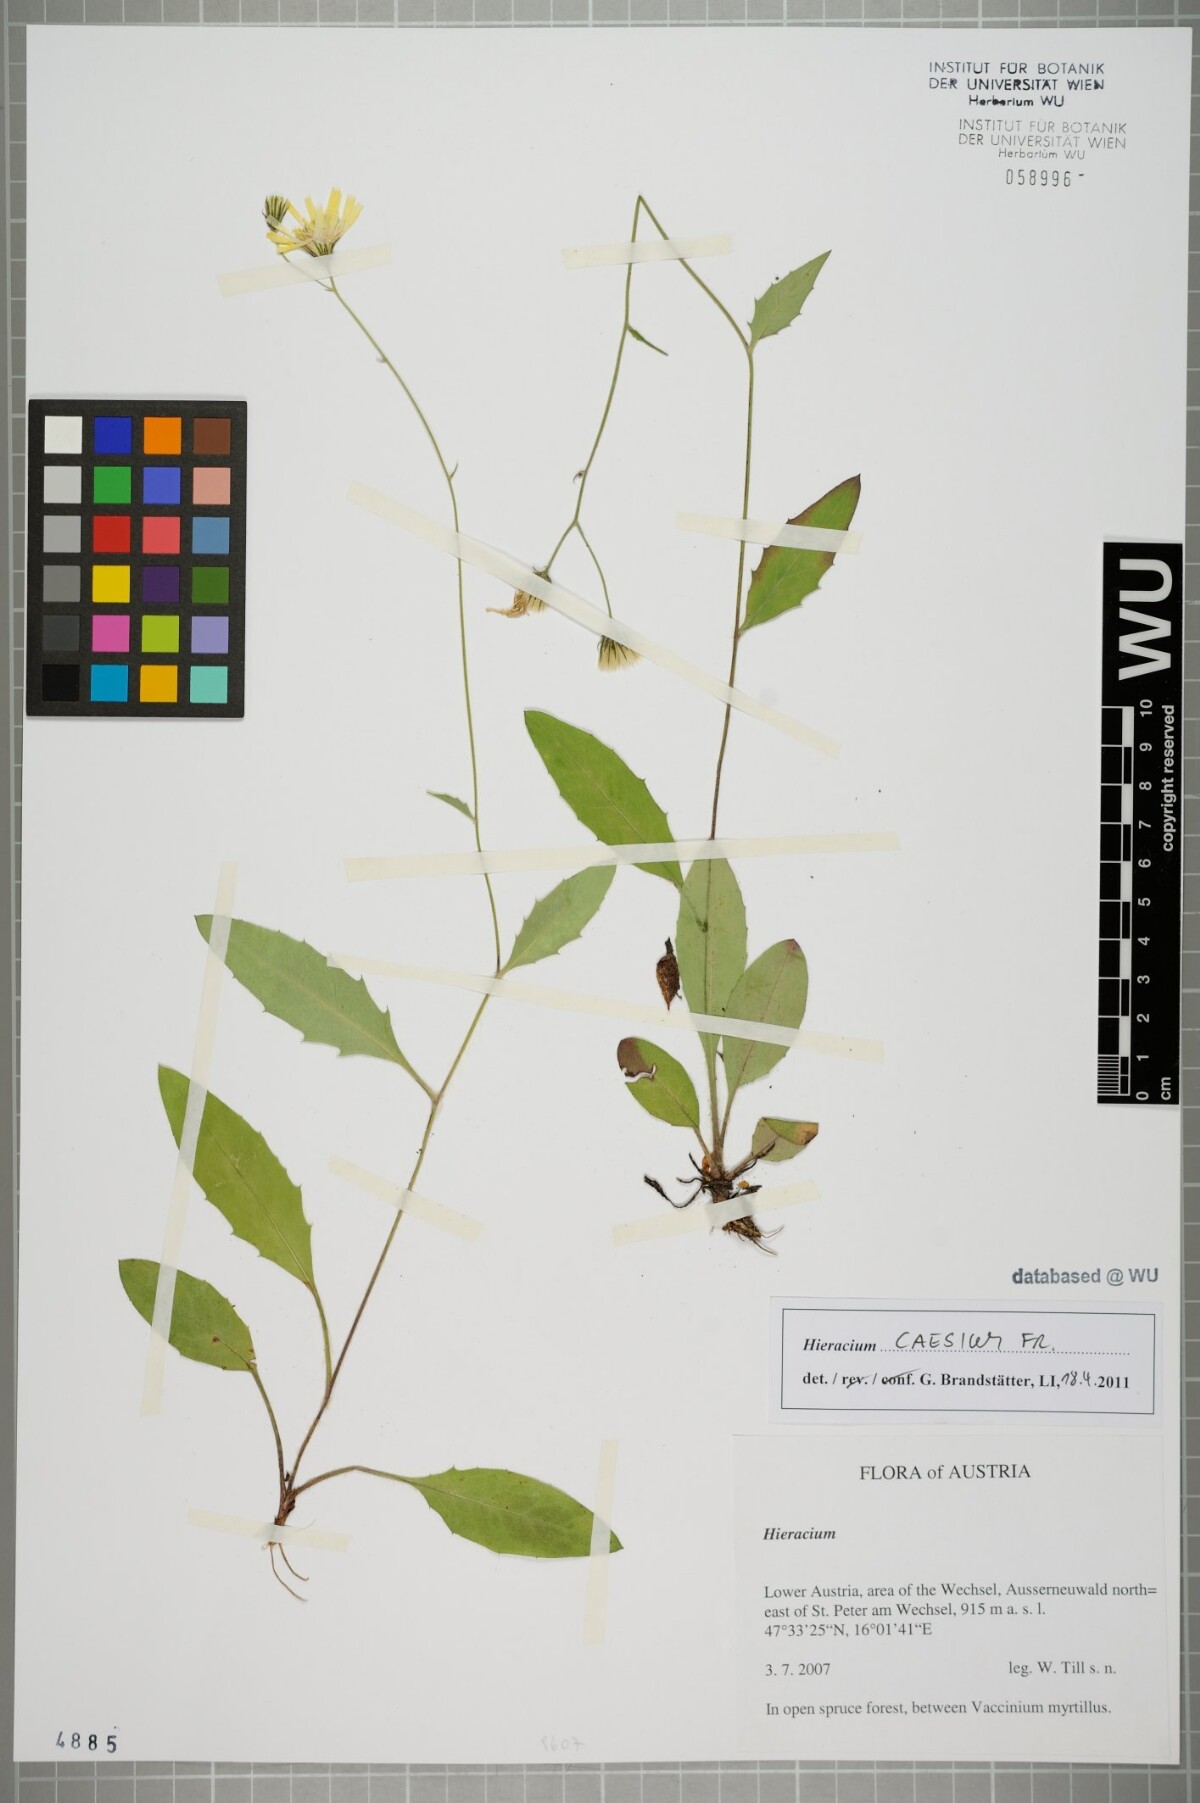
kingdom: Plantae
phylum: Tracheophyta
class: Magnoliopsida
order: Asterales
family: Asteraceae
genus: Hieracium
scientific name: Hieracium caesium
